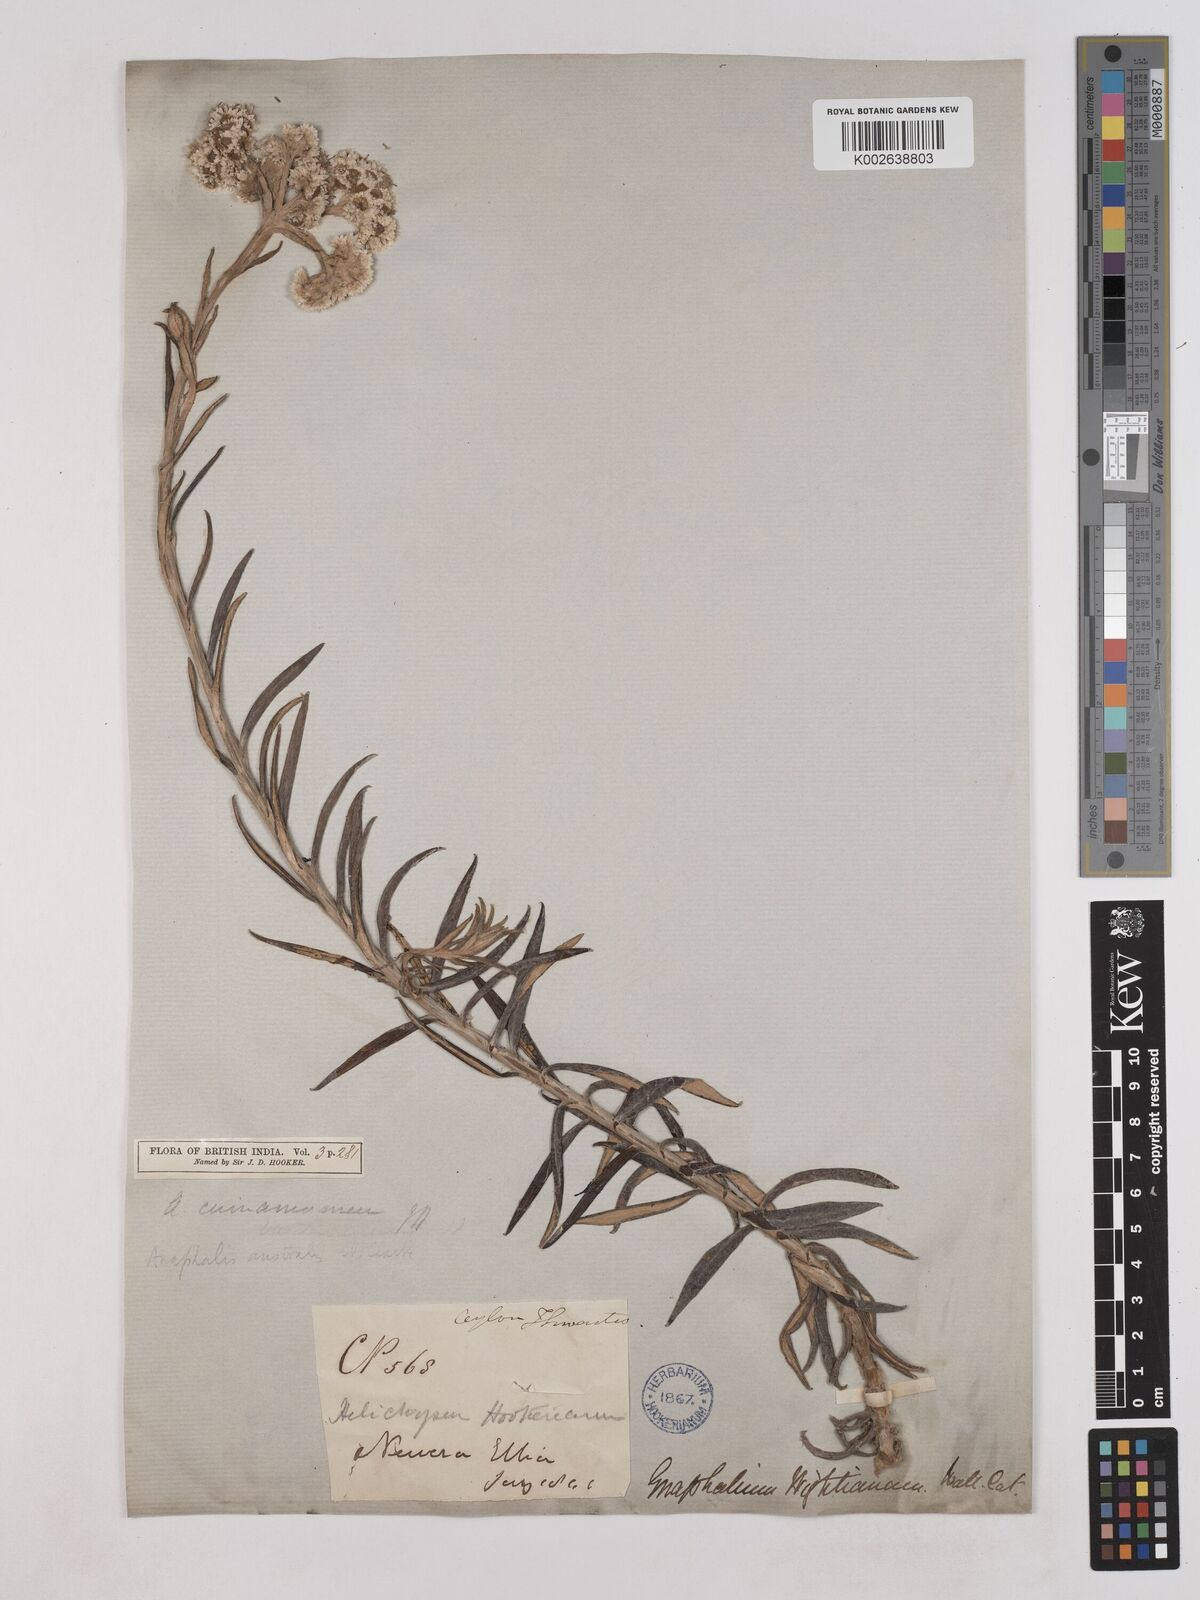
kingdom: Plantae
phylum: Tracheophyta
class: Magnoliopsida
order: Asterales
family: Asteraceae
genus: Anaphalis
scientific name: Anaphalis marcescens
